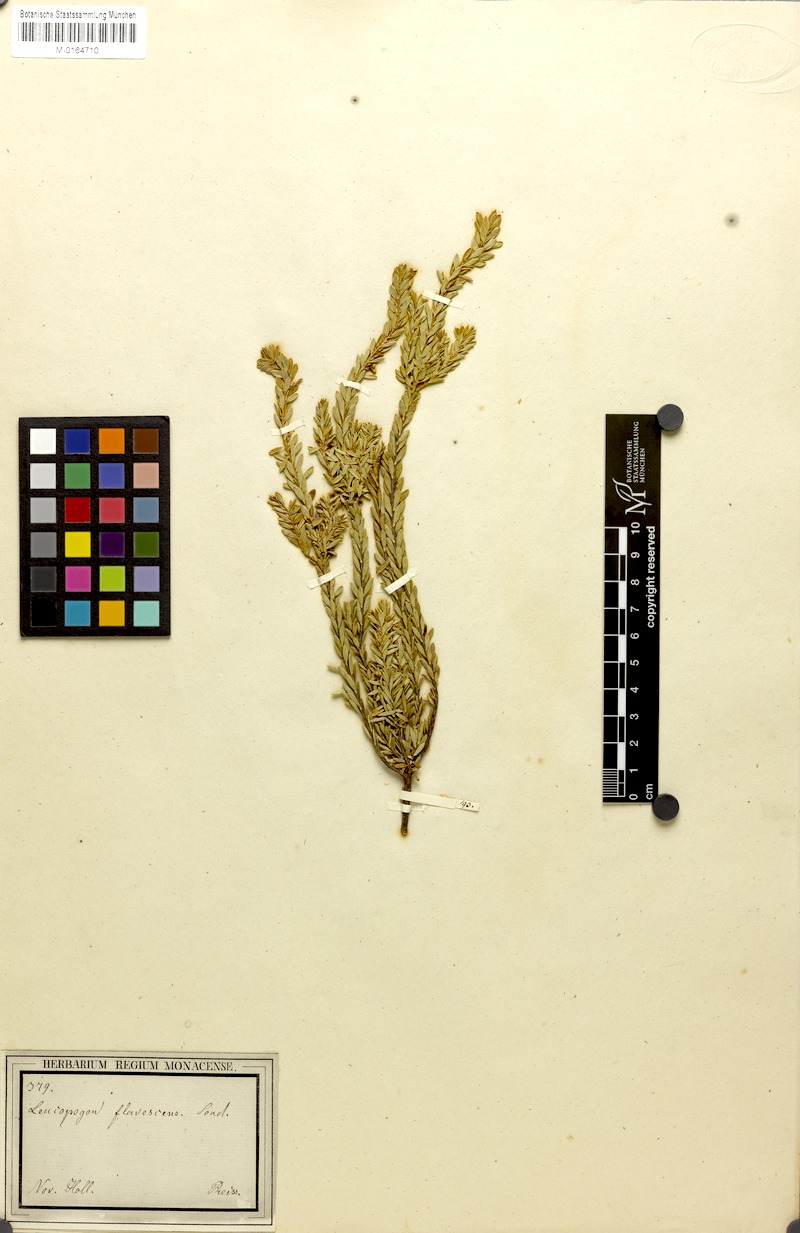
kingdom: Plantae
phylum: Tracheophyta
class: Magnoliopsida
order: Ericales
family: Ericaceae
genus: Styphelia
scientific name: Styphelia flavescens
